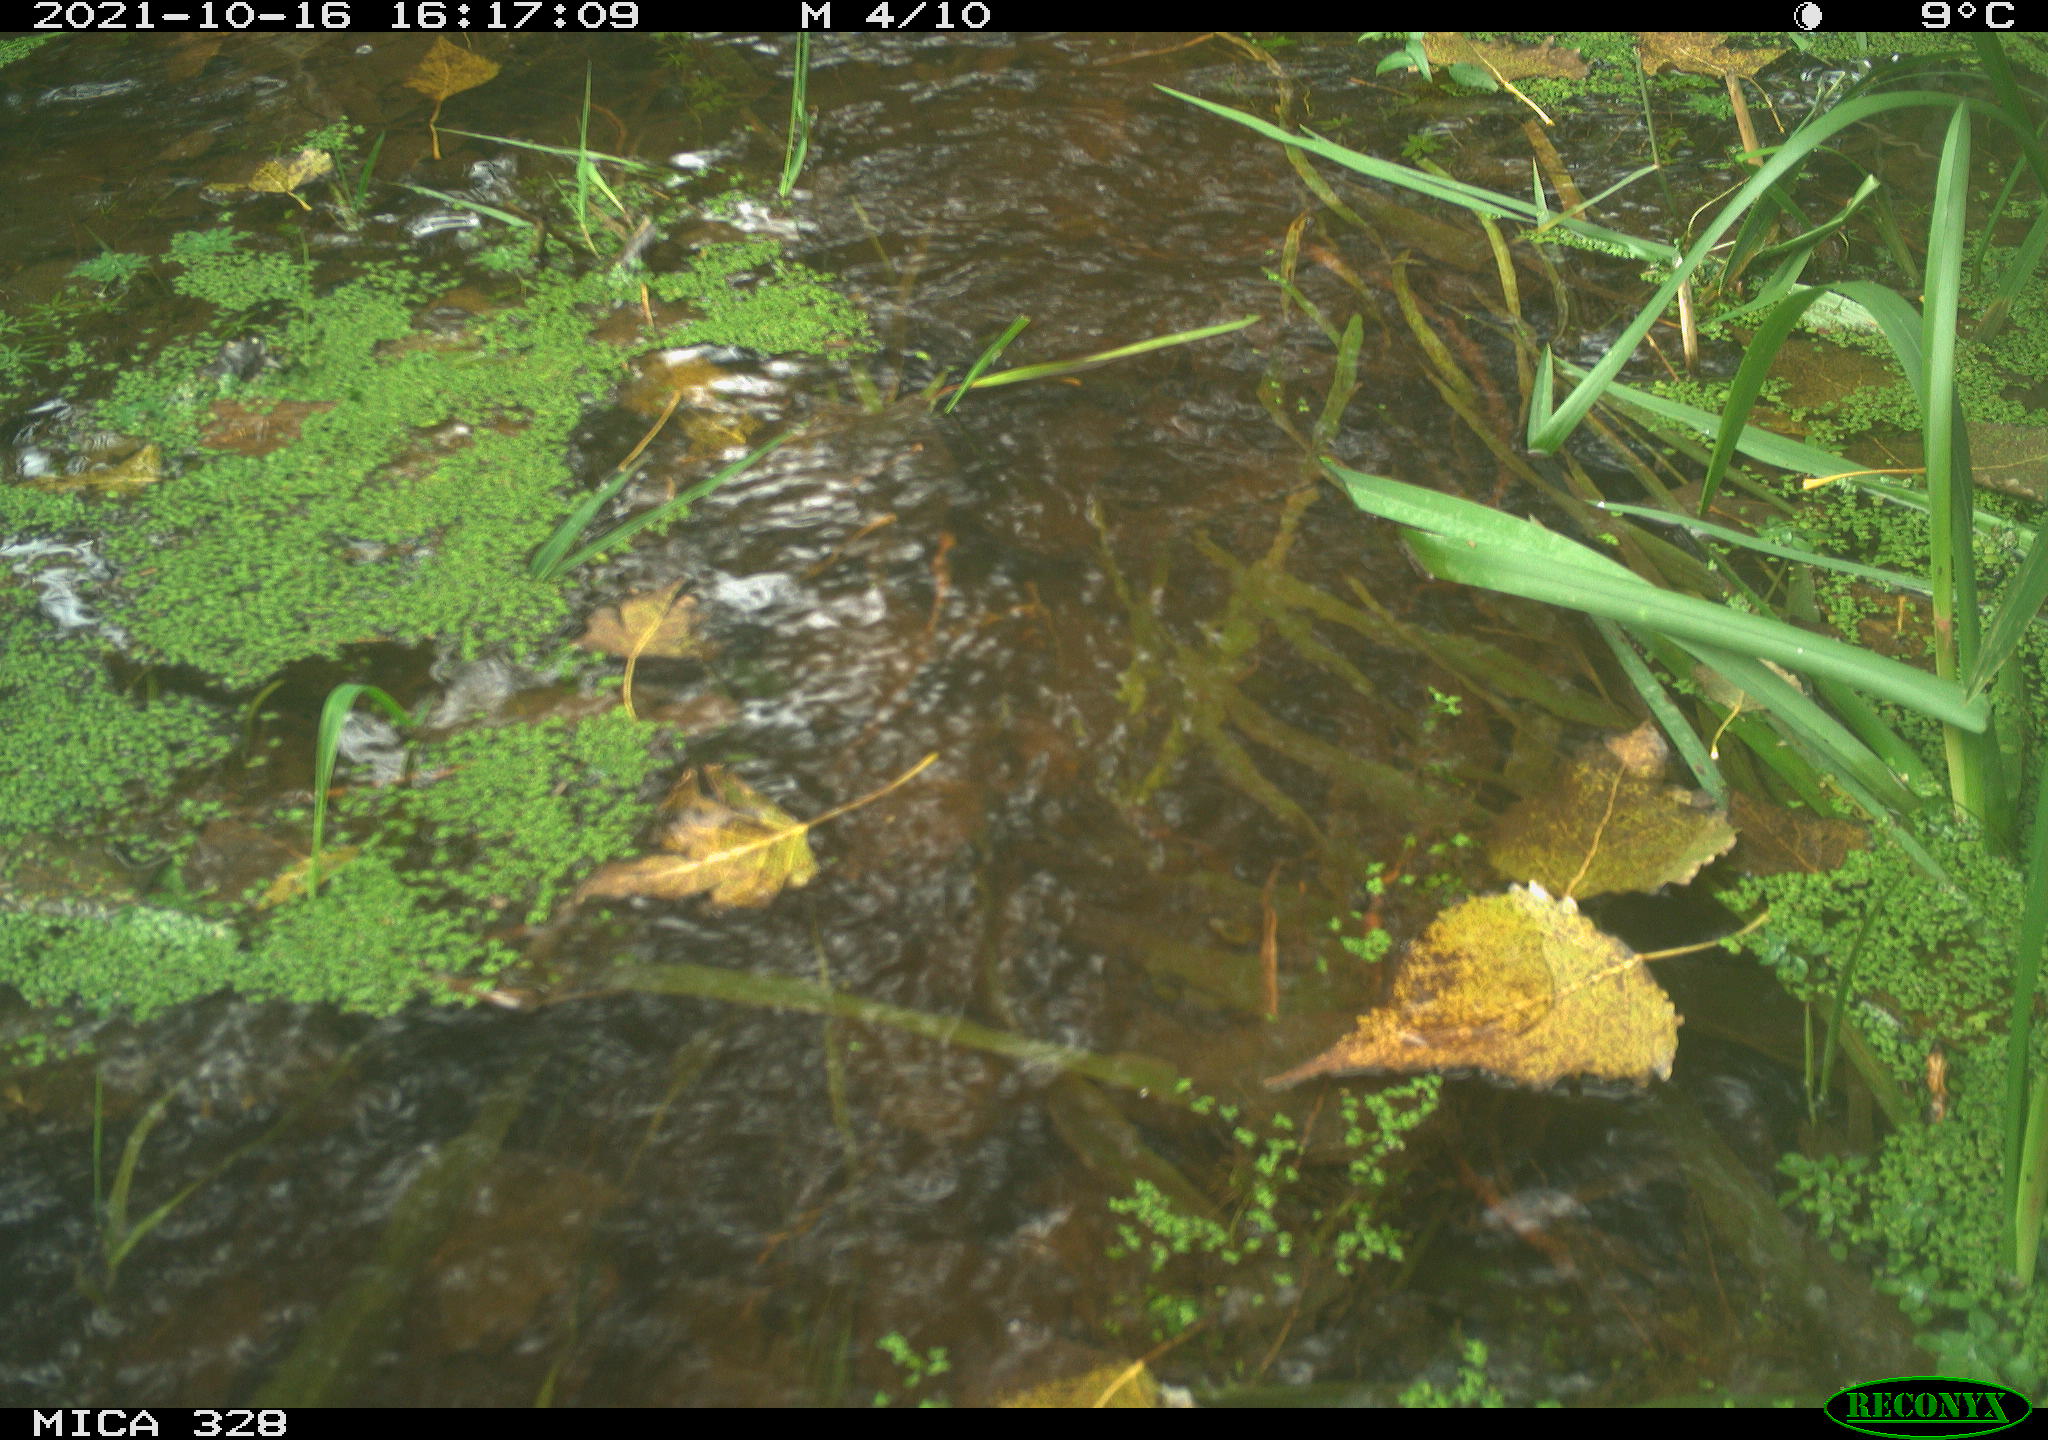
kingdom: Animalia
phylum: Chordata
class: Mammalia
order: Rodentia
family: Cricetidae
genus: Ondatra
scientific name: Ondatra zibethicus
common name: Muskrat
